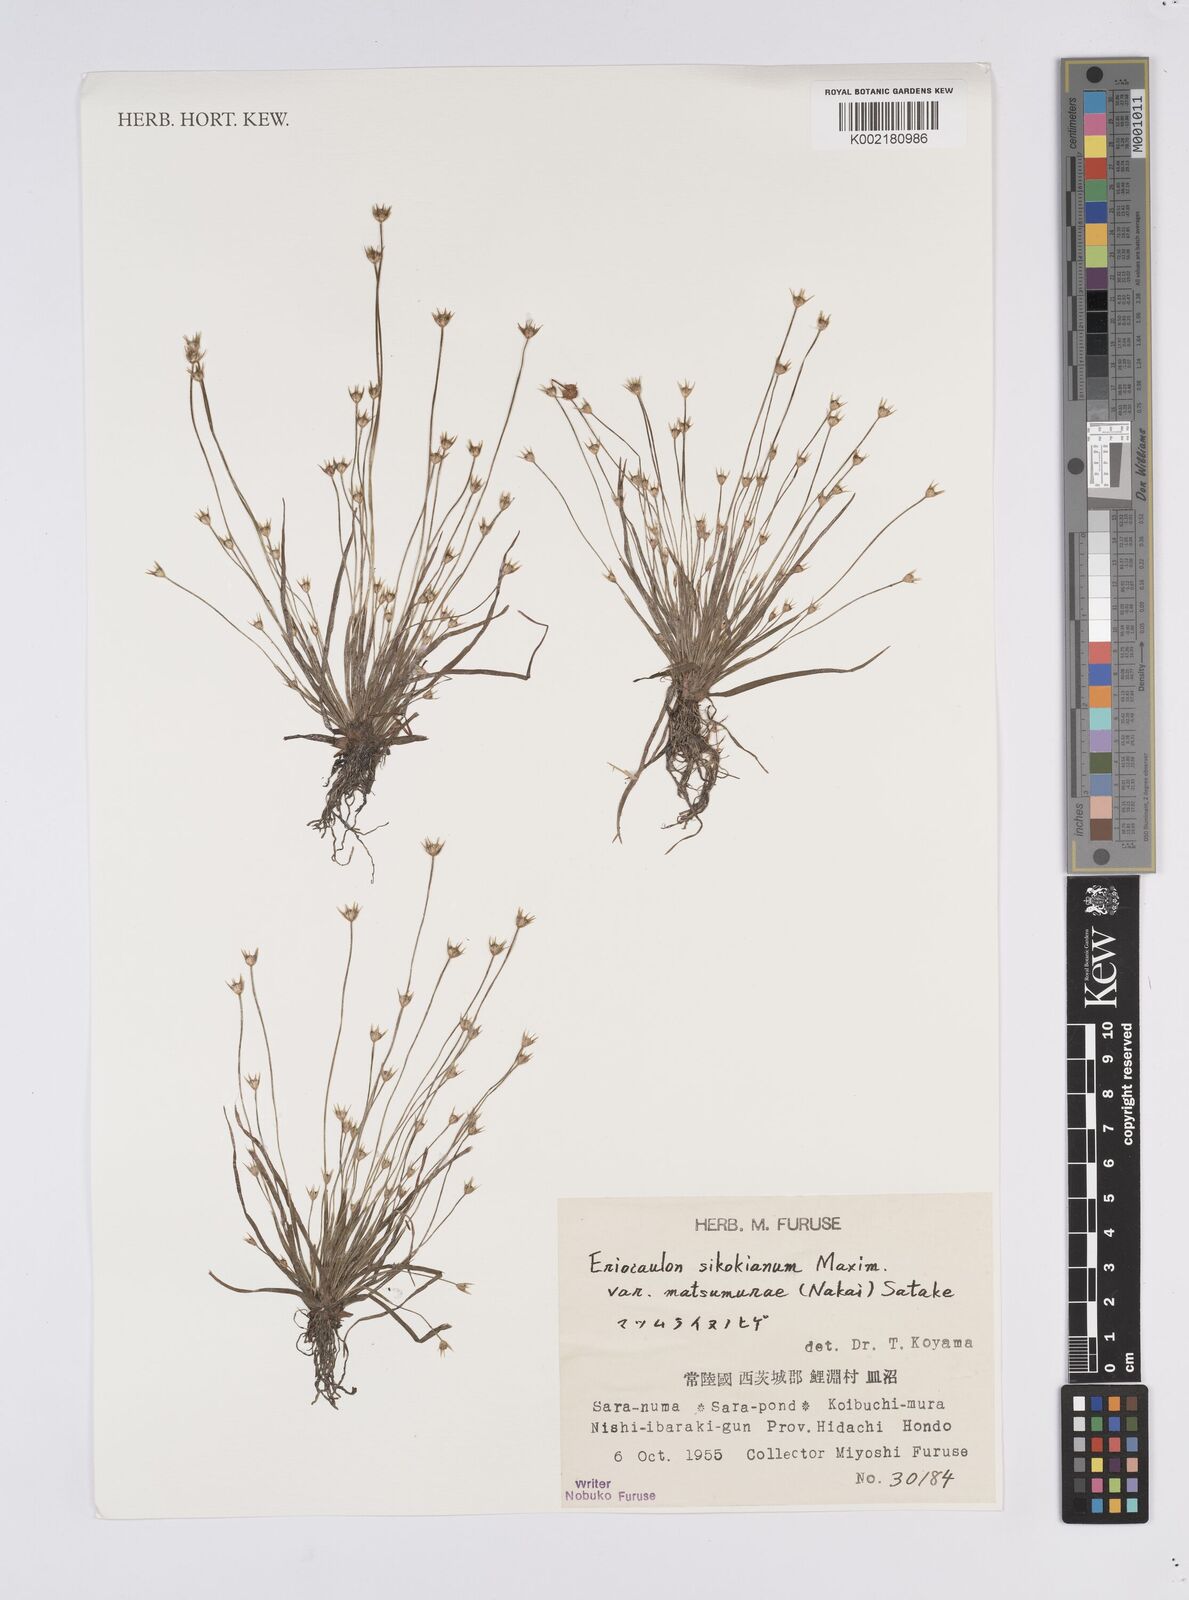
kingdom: Plantae
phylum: Tracheophyta
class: Liliopsida
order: Poales
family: Eriocaulaceae
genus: Eriocaulon
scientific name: Eriocaulon miquelianum
